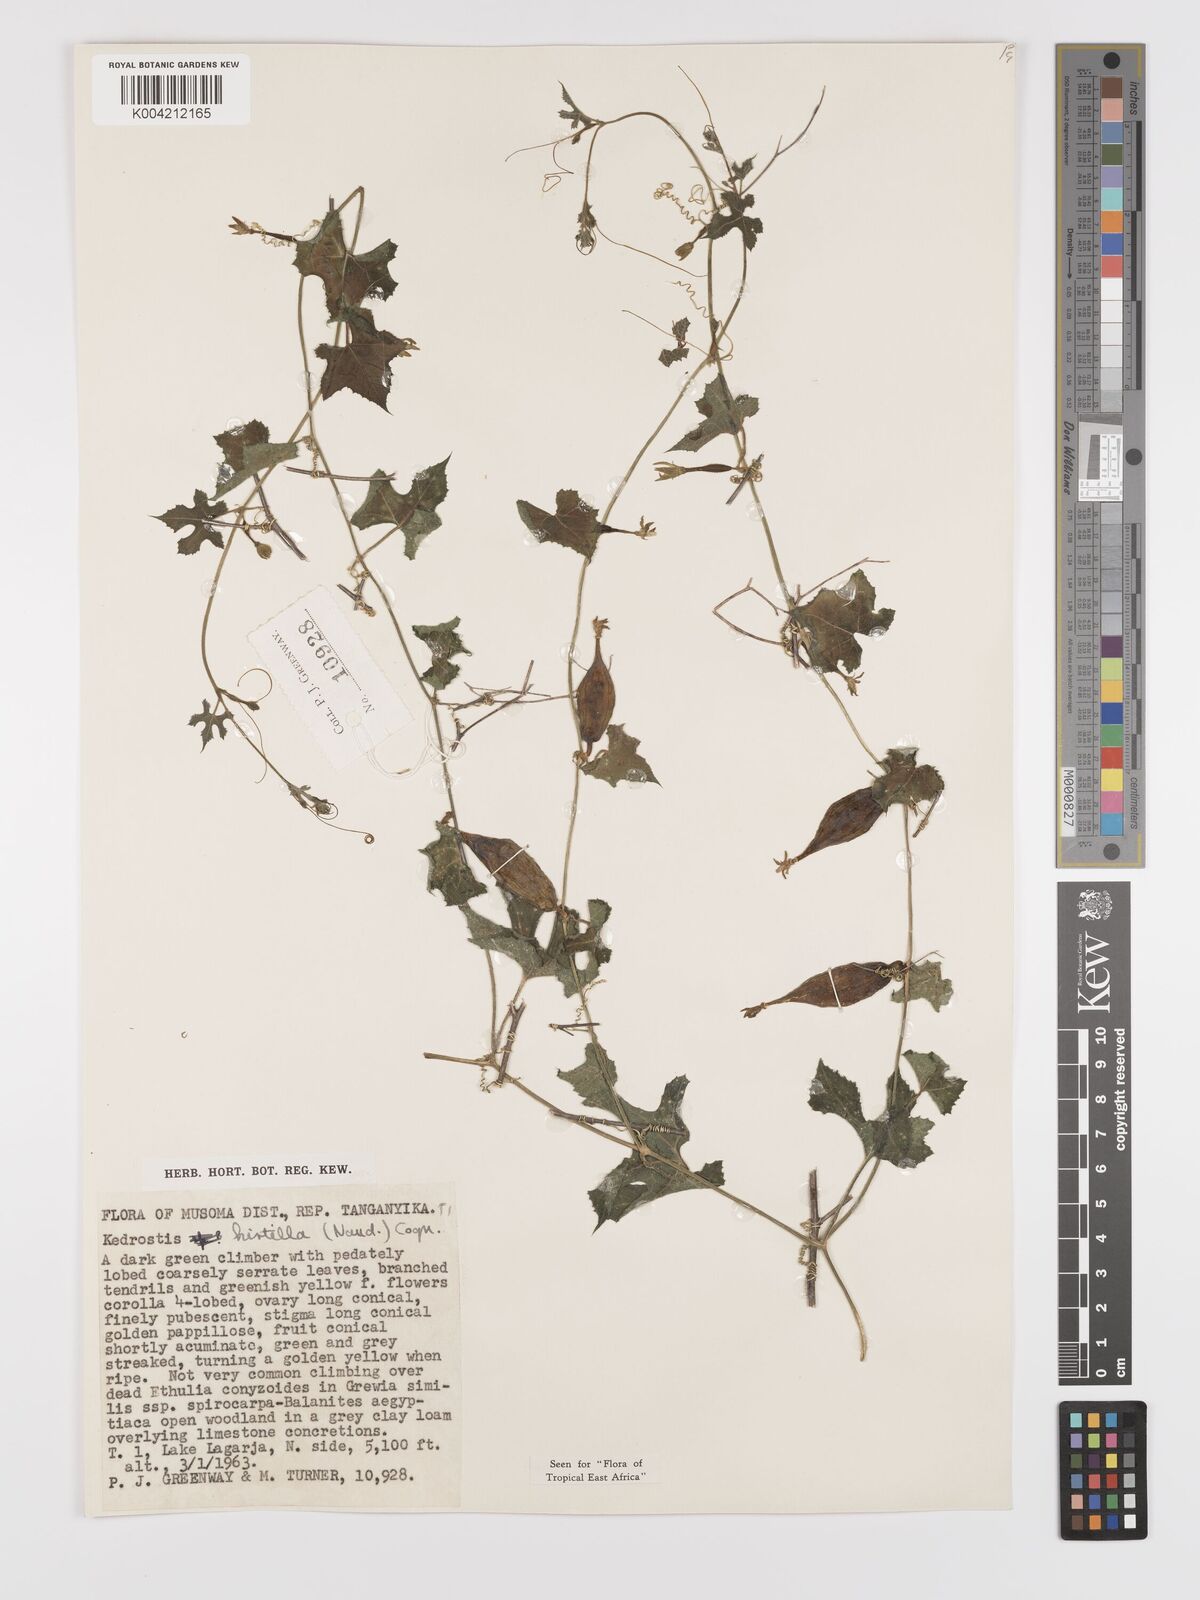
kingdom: Plantae
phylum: Tracheophyta
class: Magnoliopsida
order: Cucurbitales
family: Cucurbitaceae
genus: Kedrostis
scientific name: Kedrostis leloja
